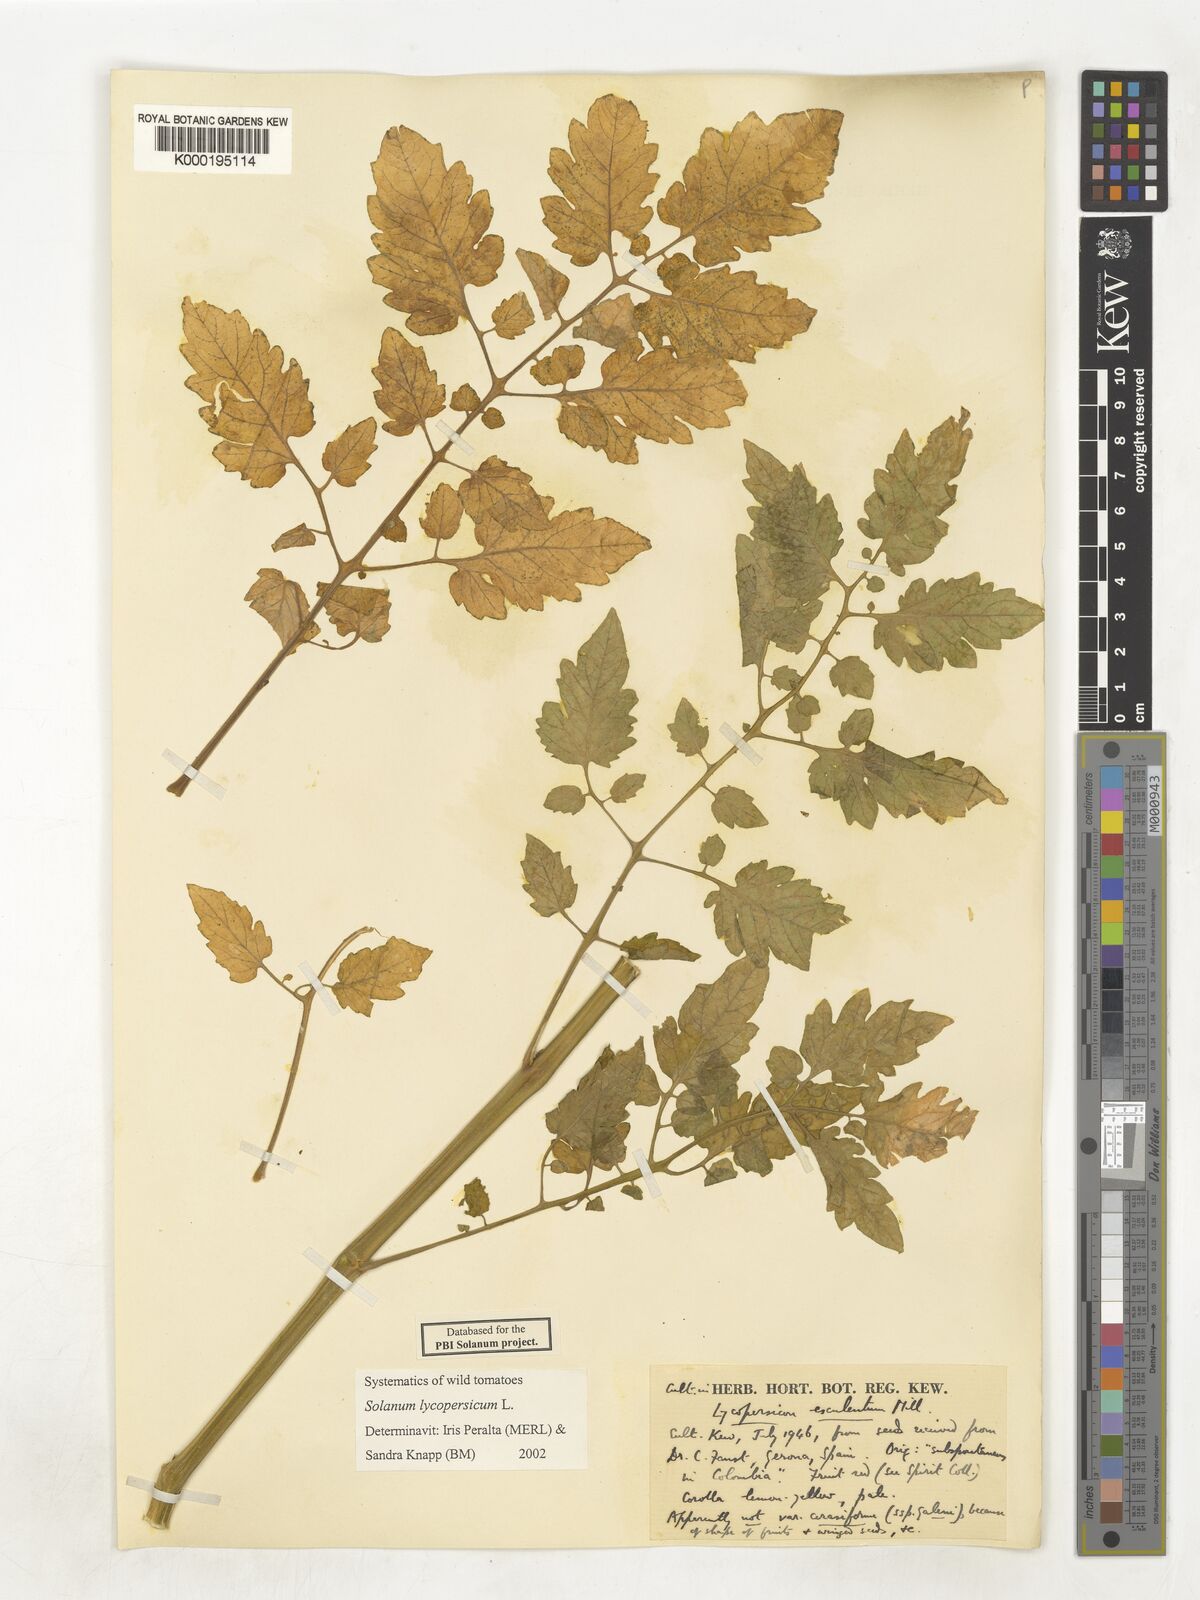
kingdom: Plantae
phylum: Tracheophyta
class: Magnoliopsida
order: Solanales
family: Solanaceae
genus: Solanum
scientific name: Solanum lycopersicum
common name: Garden tomato
